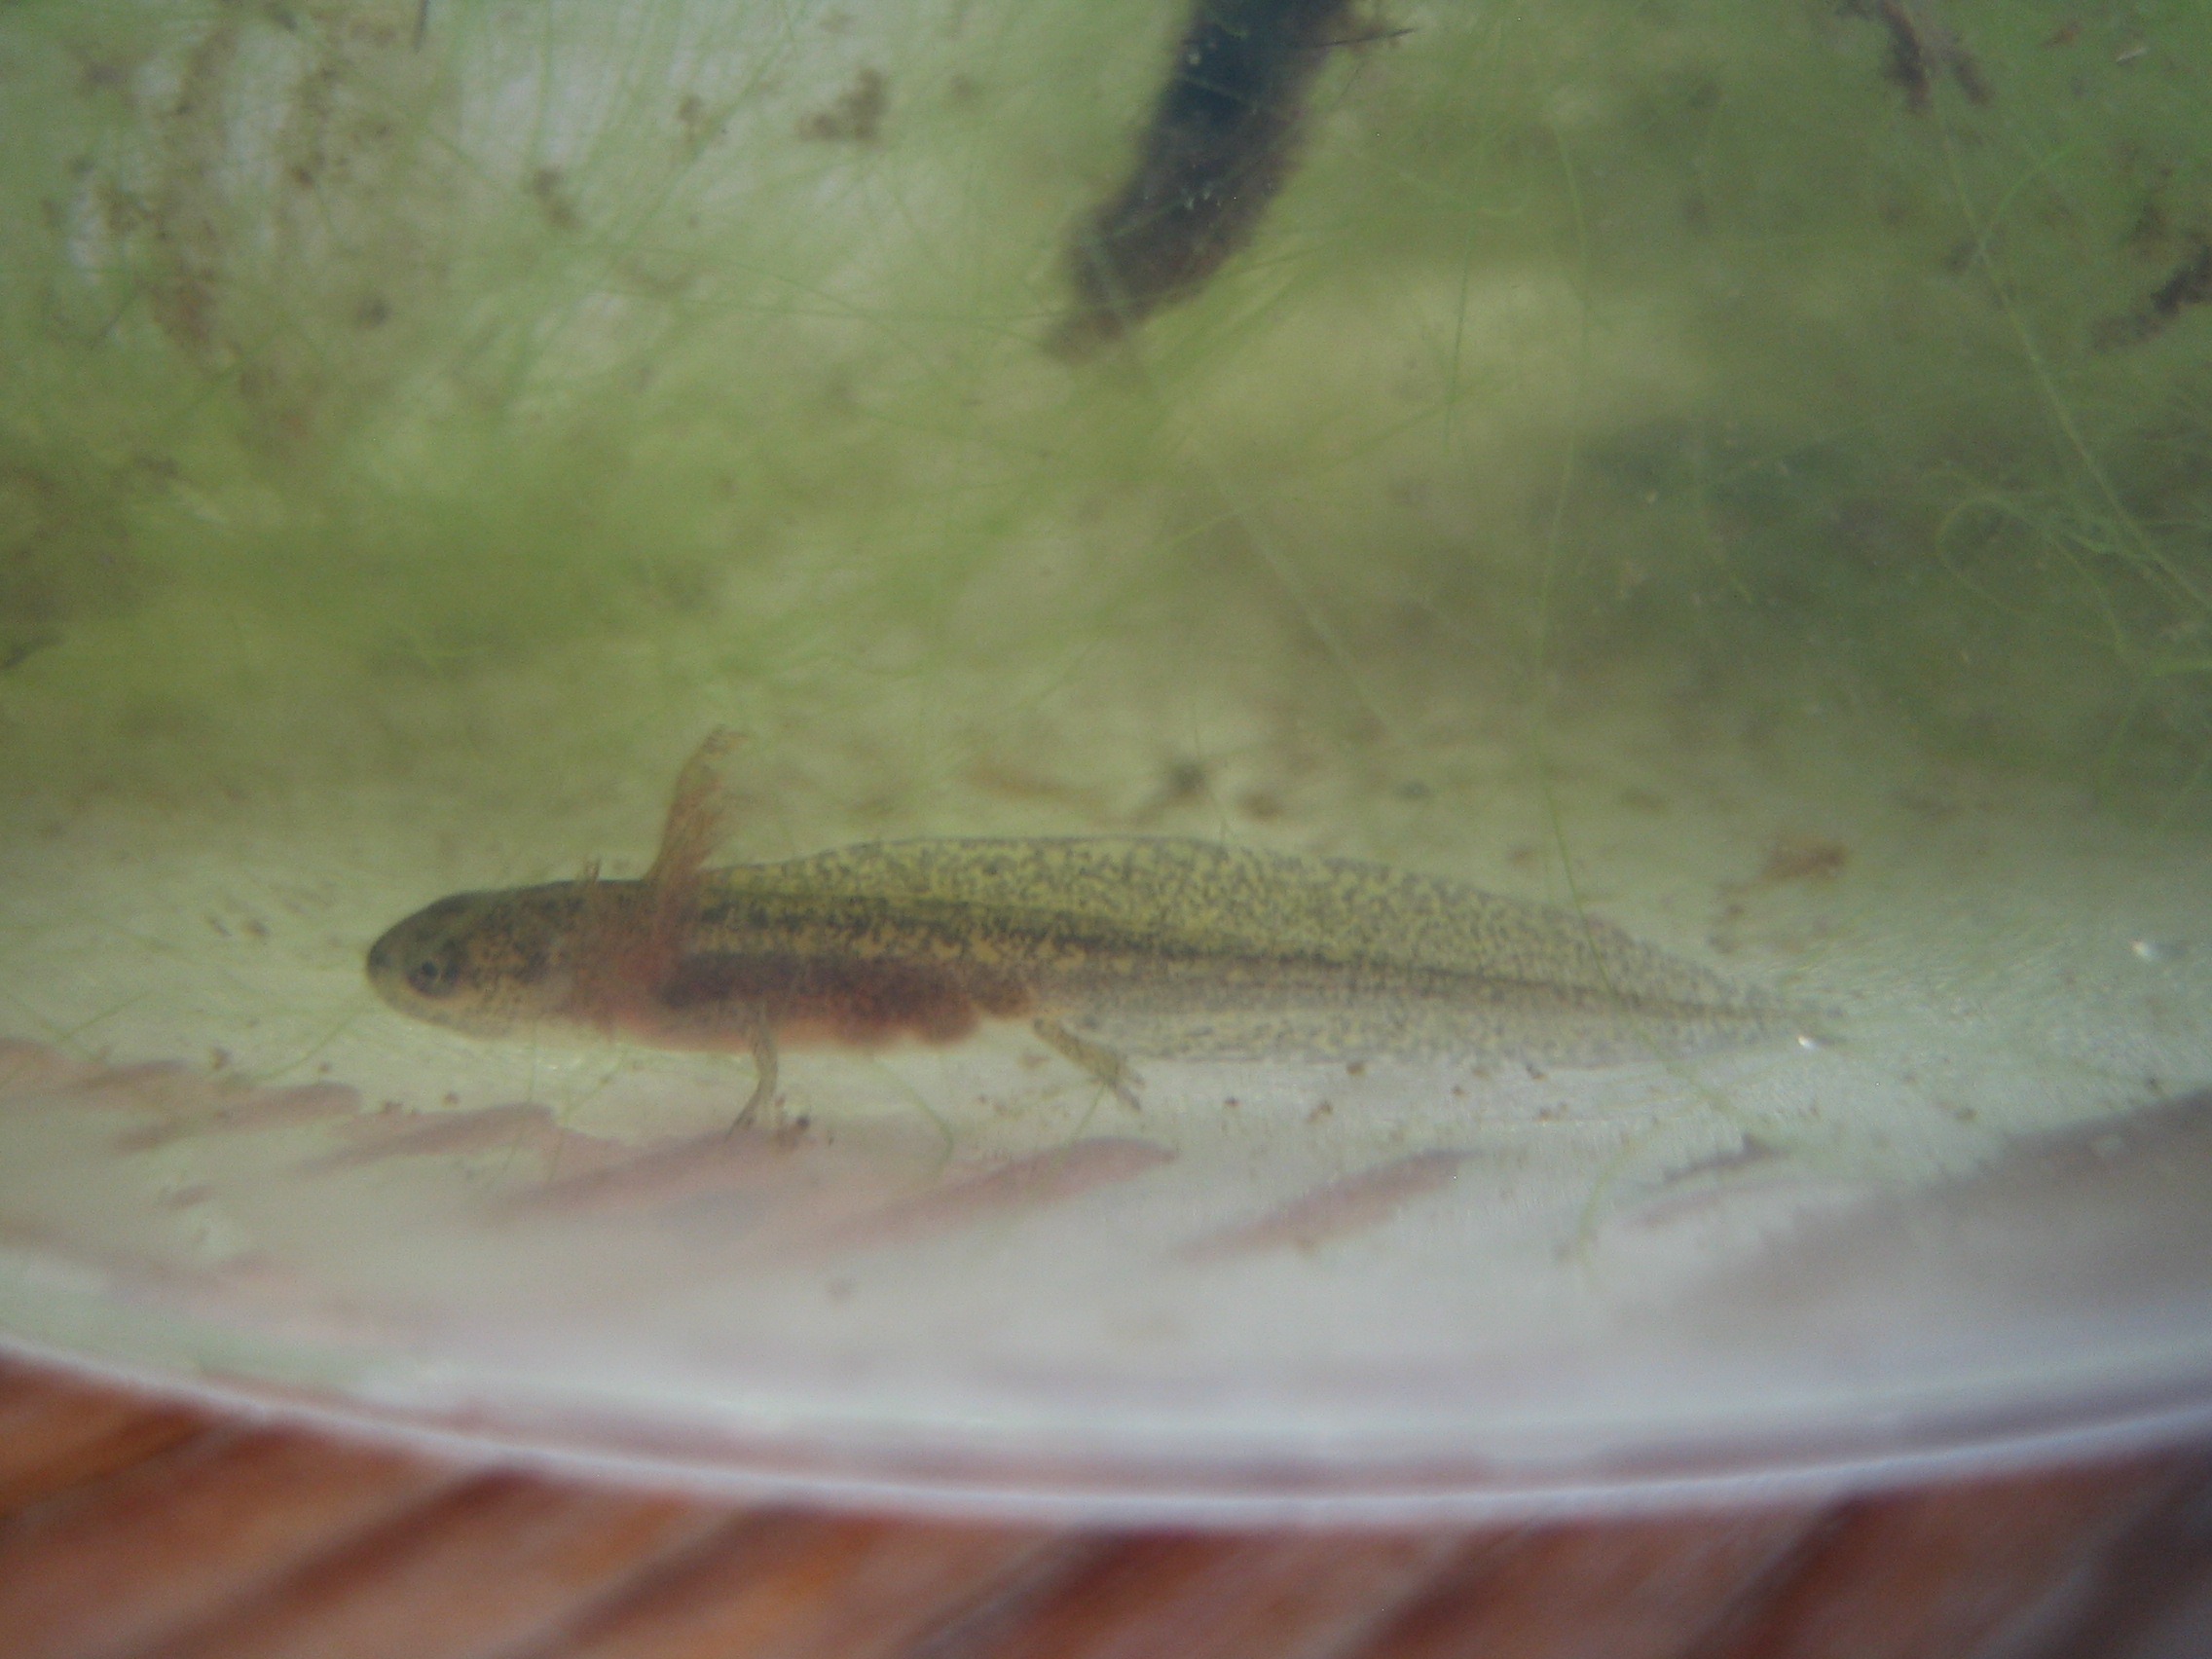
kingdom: Animalia
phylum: Chordata
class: Amphibia
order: Caudata
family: Salamandridae
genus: Lissotriton
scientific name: Lissotriton vulgaris
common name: Lille vandsalamander
